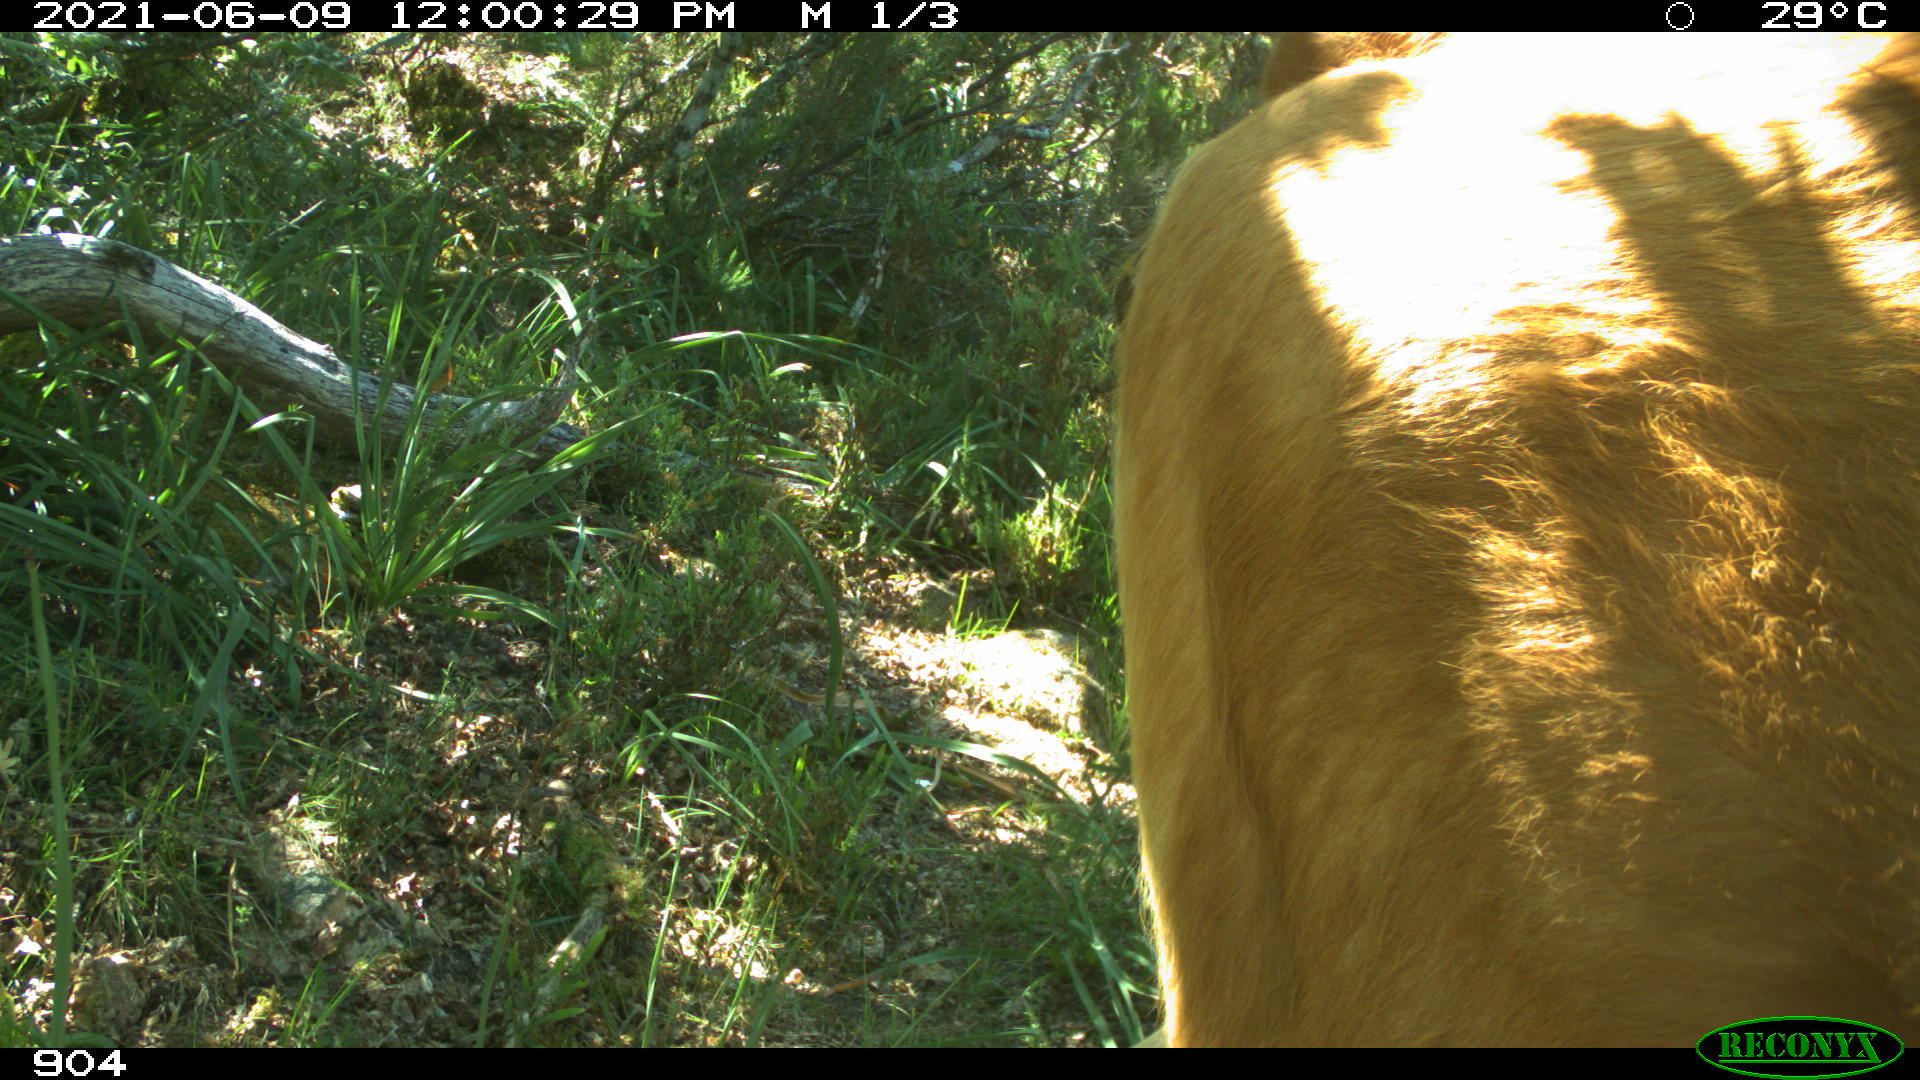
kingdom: Animalia
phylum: Chordata
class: Mammalia
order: Artiodactyla
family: Bovidae
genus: Bos
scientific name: Bos taurus
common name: Domesticated cattle
